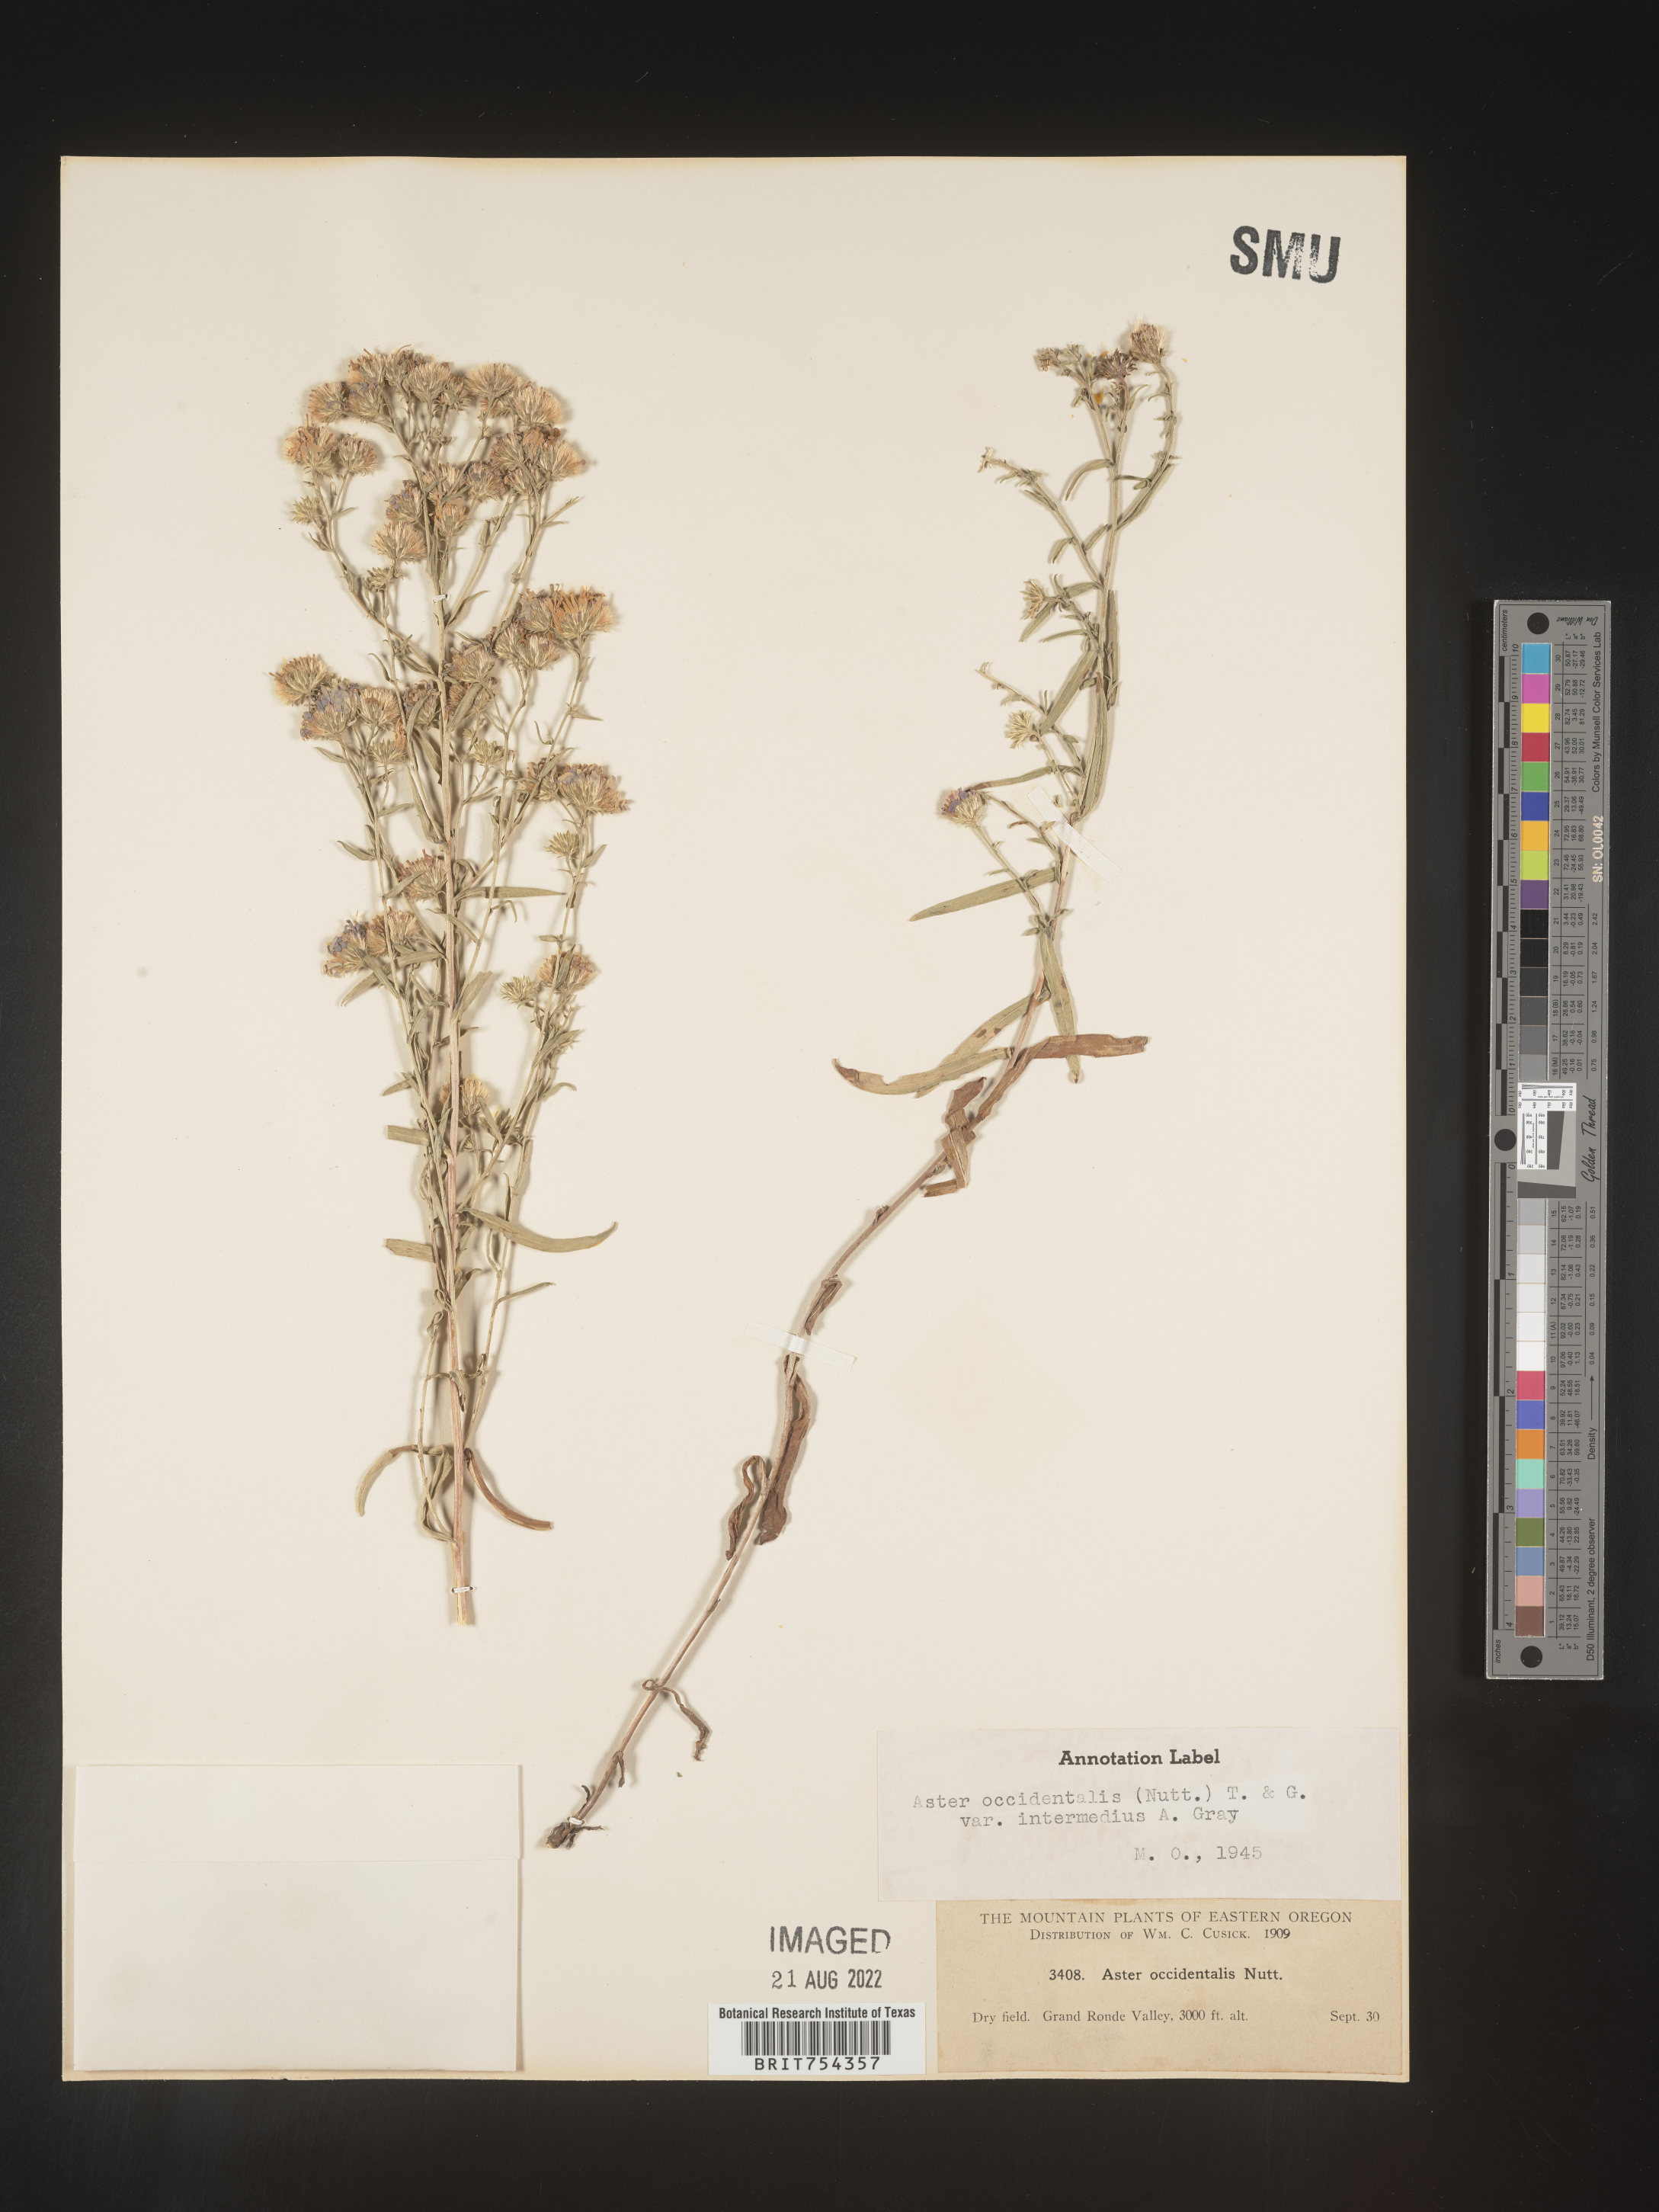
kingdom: Plantae
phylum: Tracheophyta
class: Magnoliopsida
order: Asterales
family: Asteraceae
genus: Symphyotrichum
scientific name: Symphyotrichum spathulatum
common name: Western mountain aster
